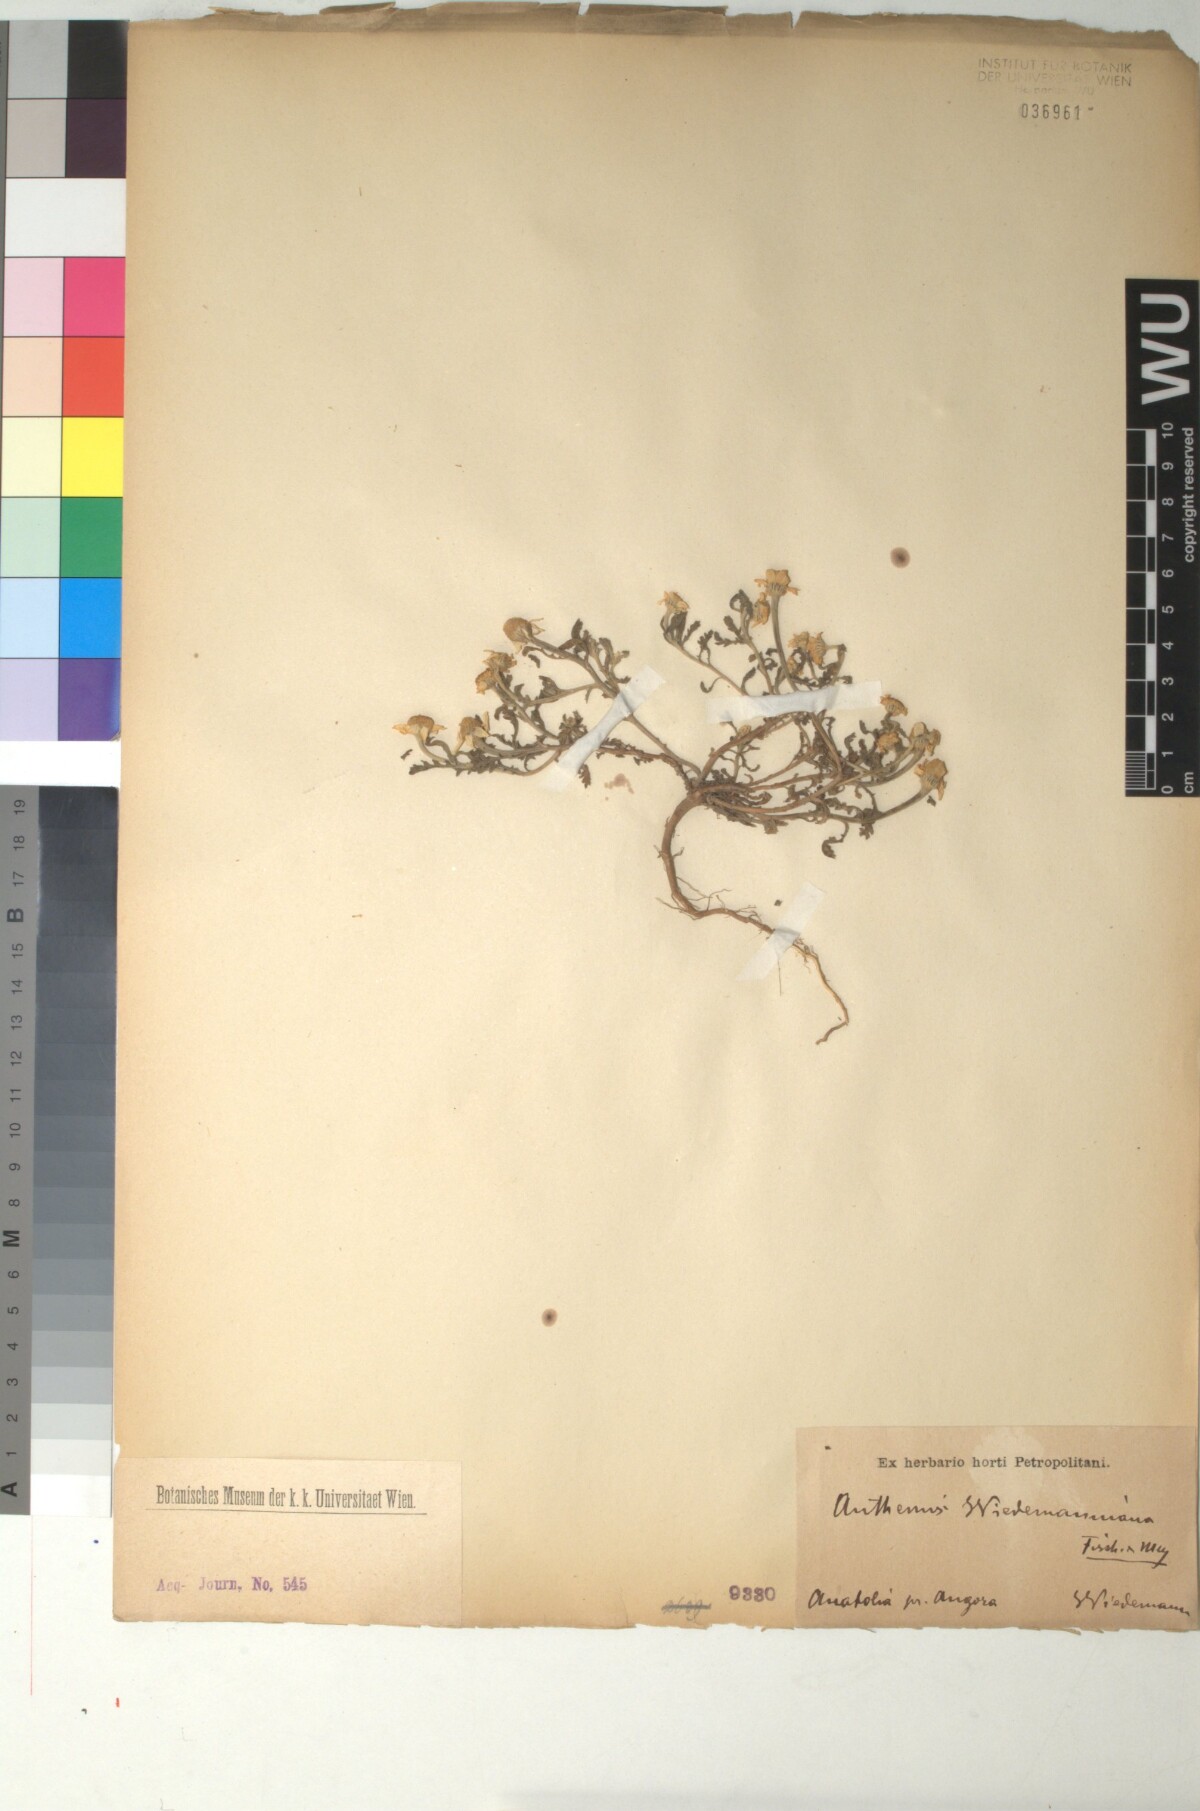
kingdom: Plantae
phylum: Tracheophyta
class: Magnoliopsida
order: Asterales
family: Asteraceae
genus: Cota
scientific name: Cota wiedemanniana
